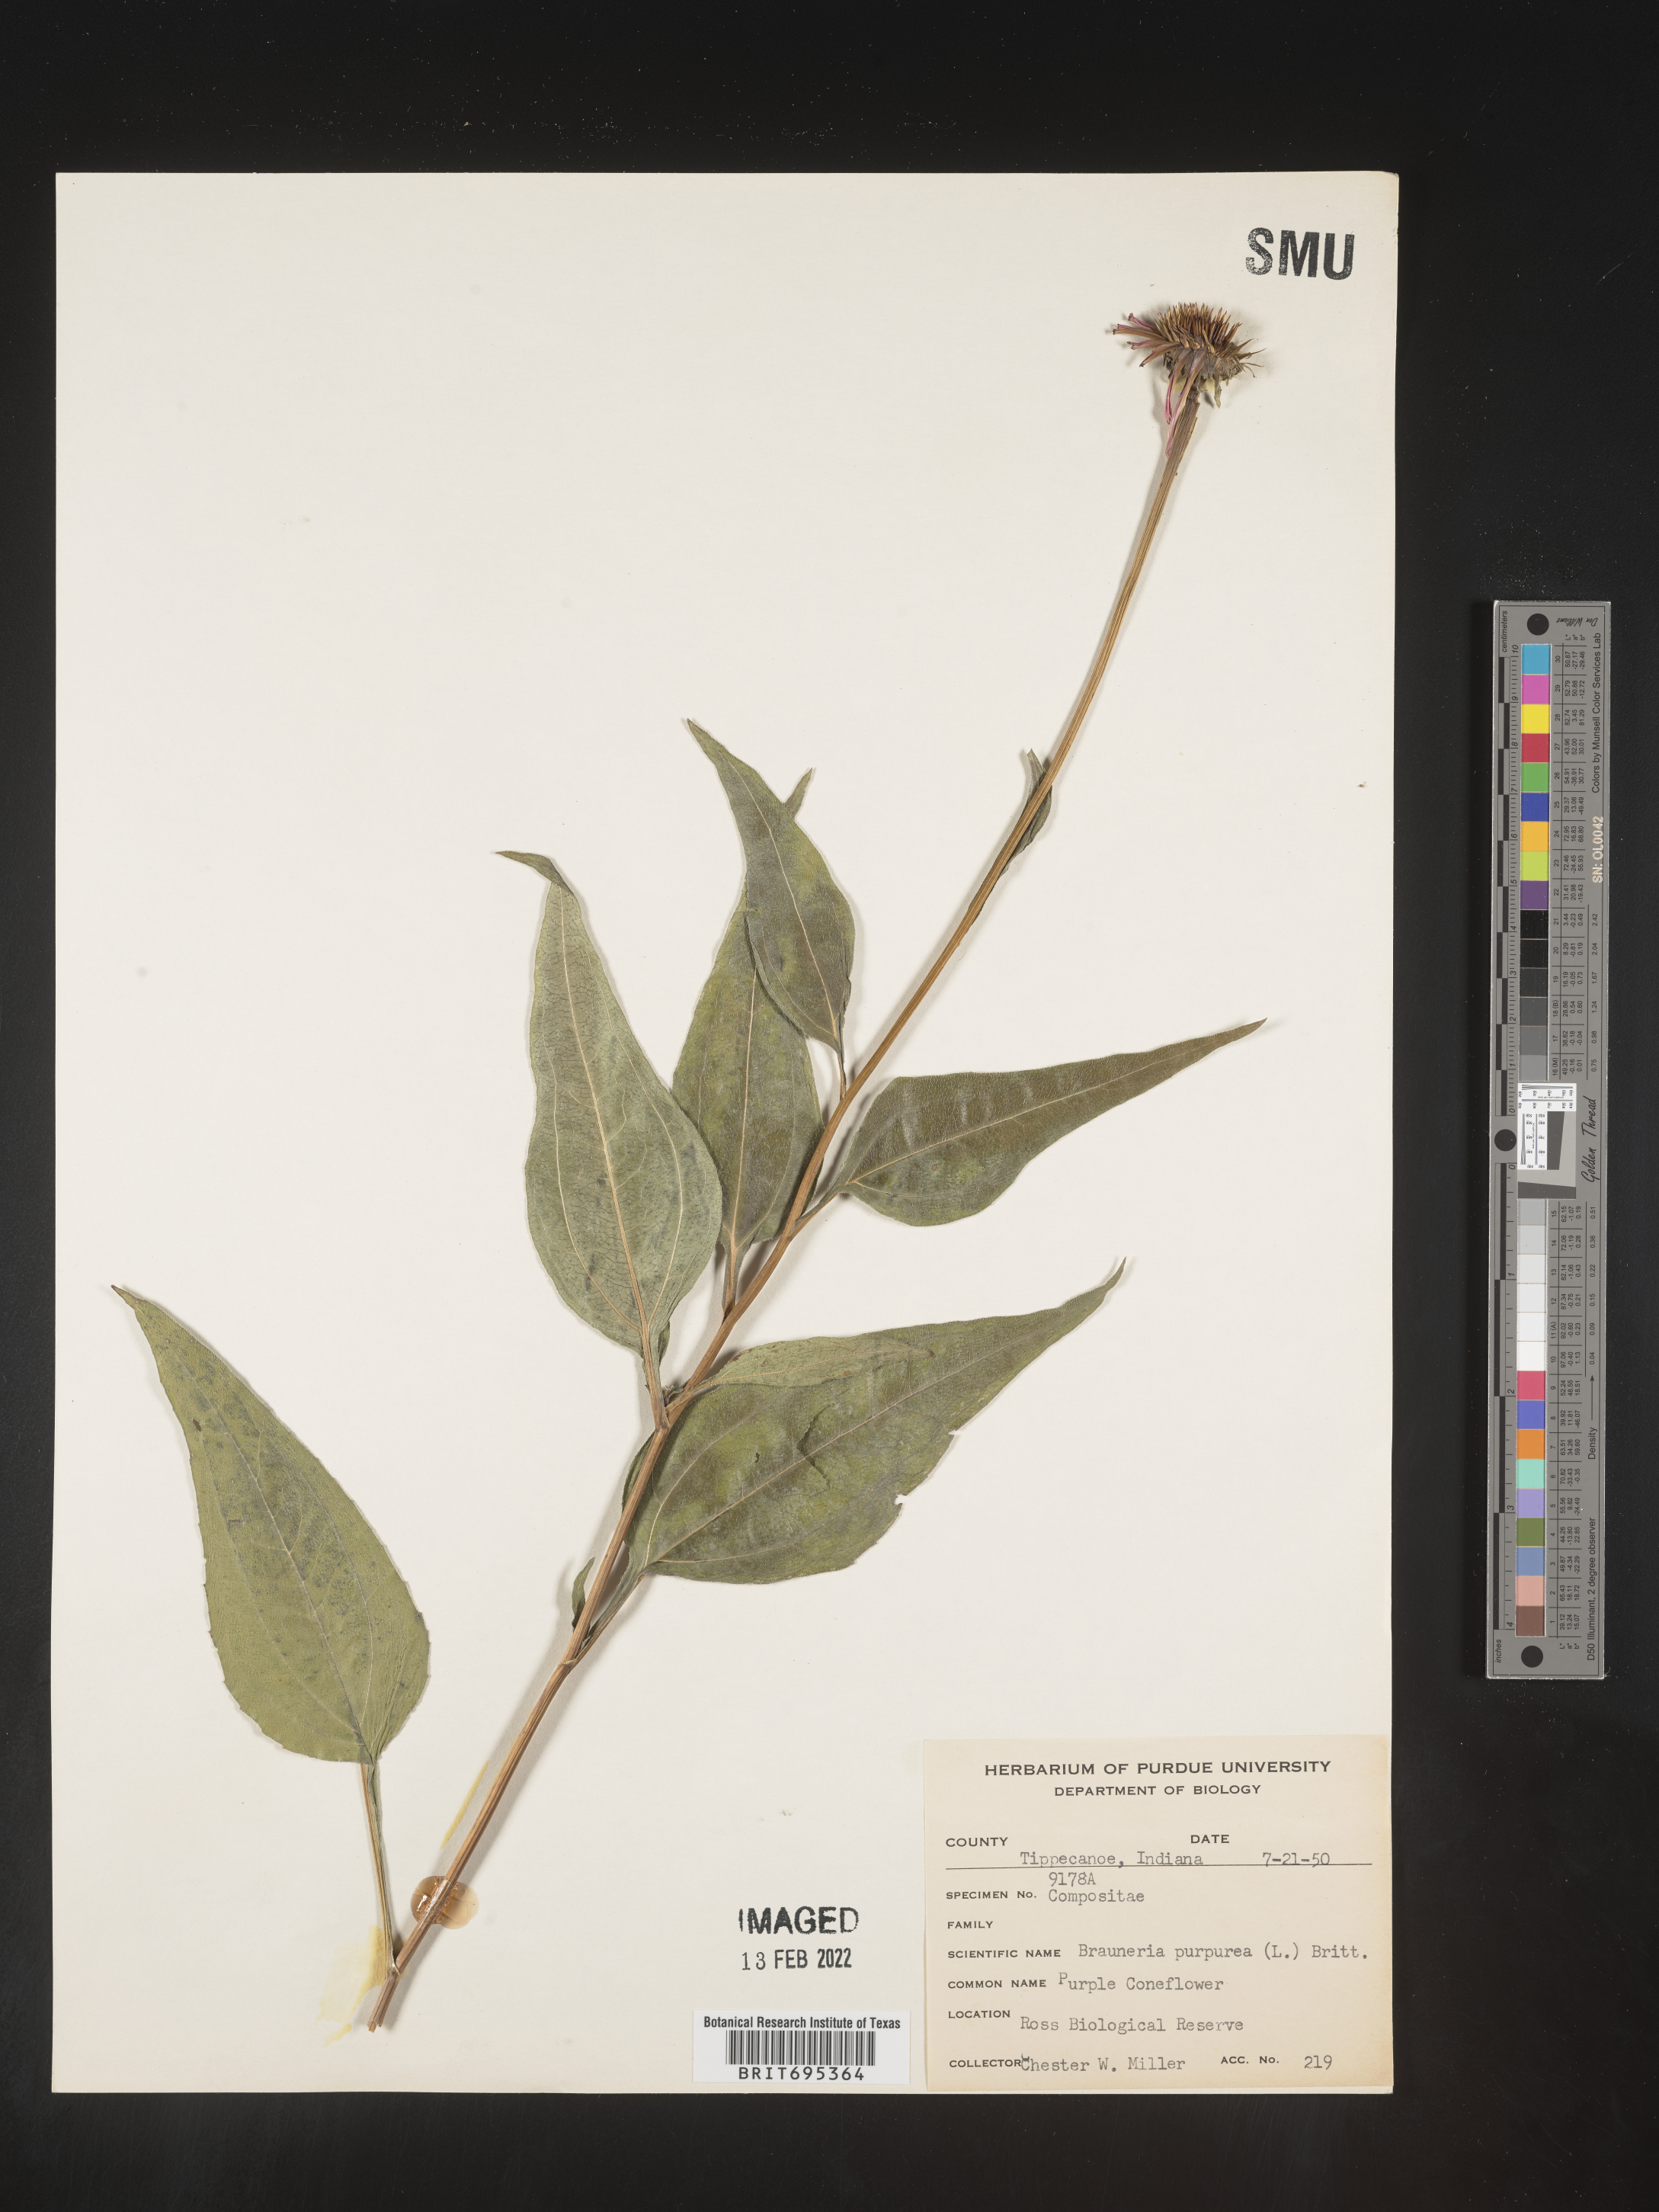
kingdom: Plantae
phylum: Tracheophyta
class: Magnoliopsida
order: Asterales
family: Asteraceae
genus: Echinacea
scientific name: Echinacea purpurea
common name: Broad-leaved purple coneflower
